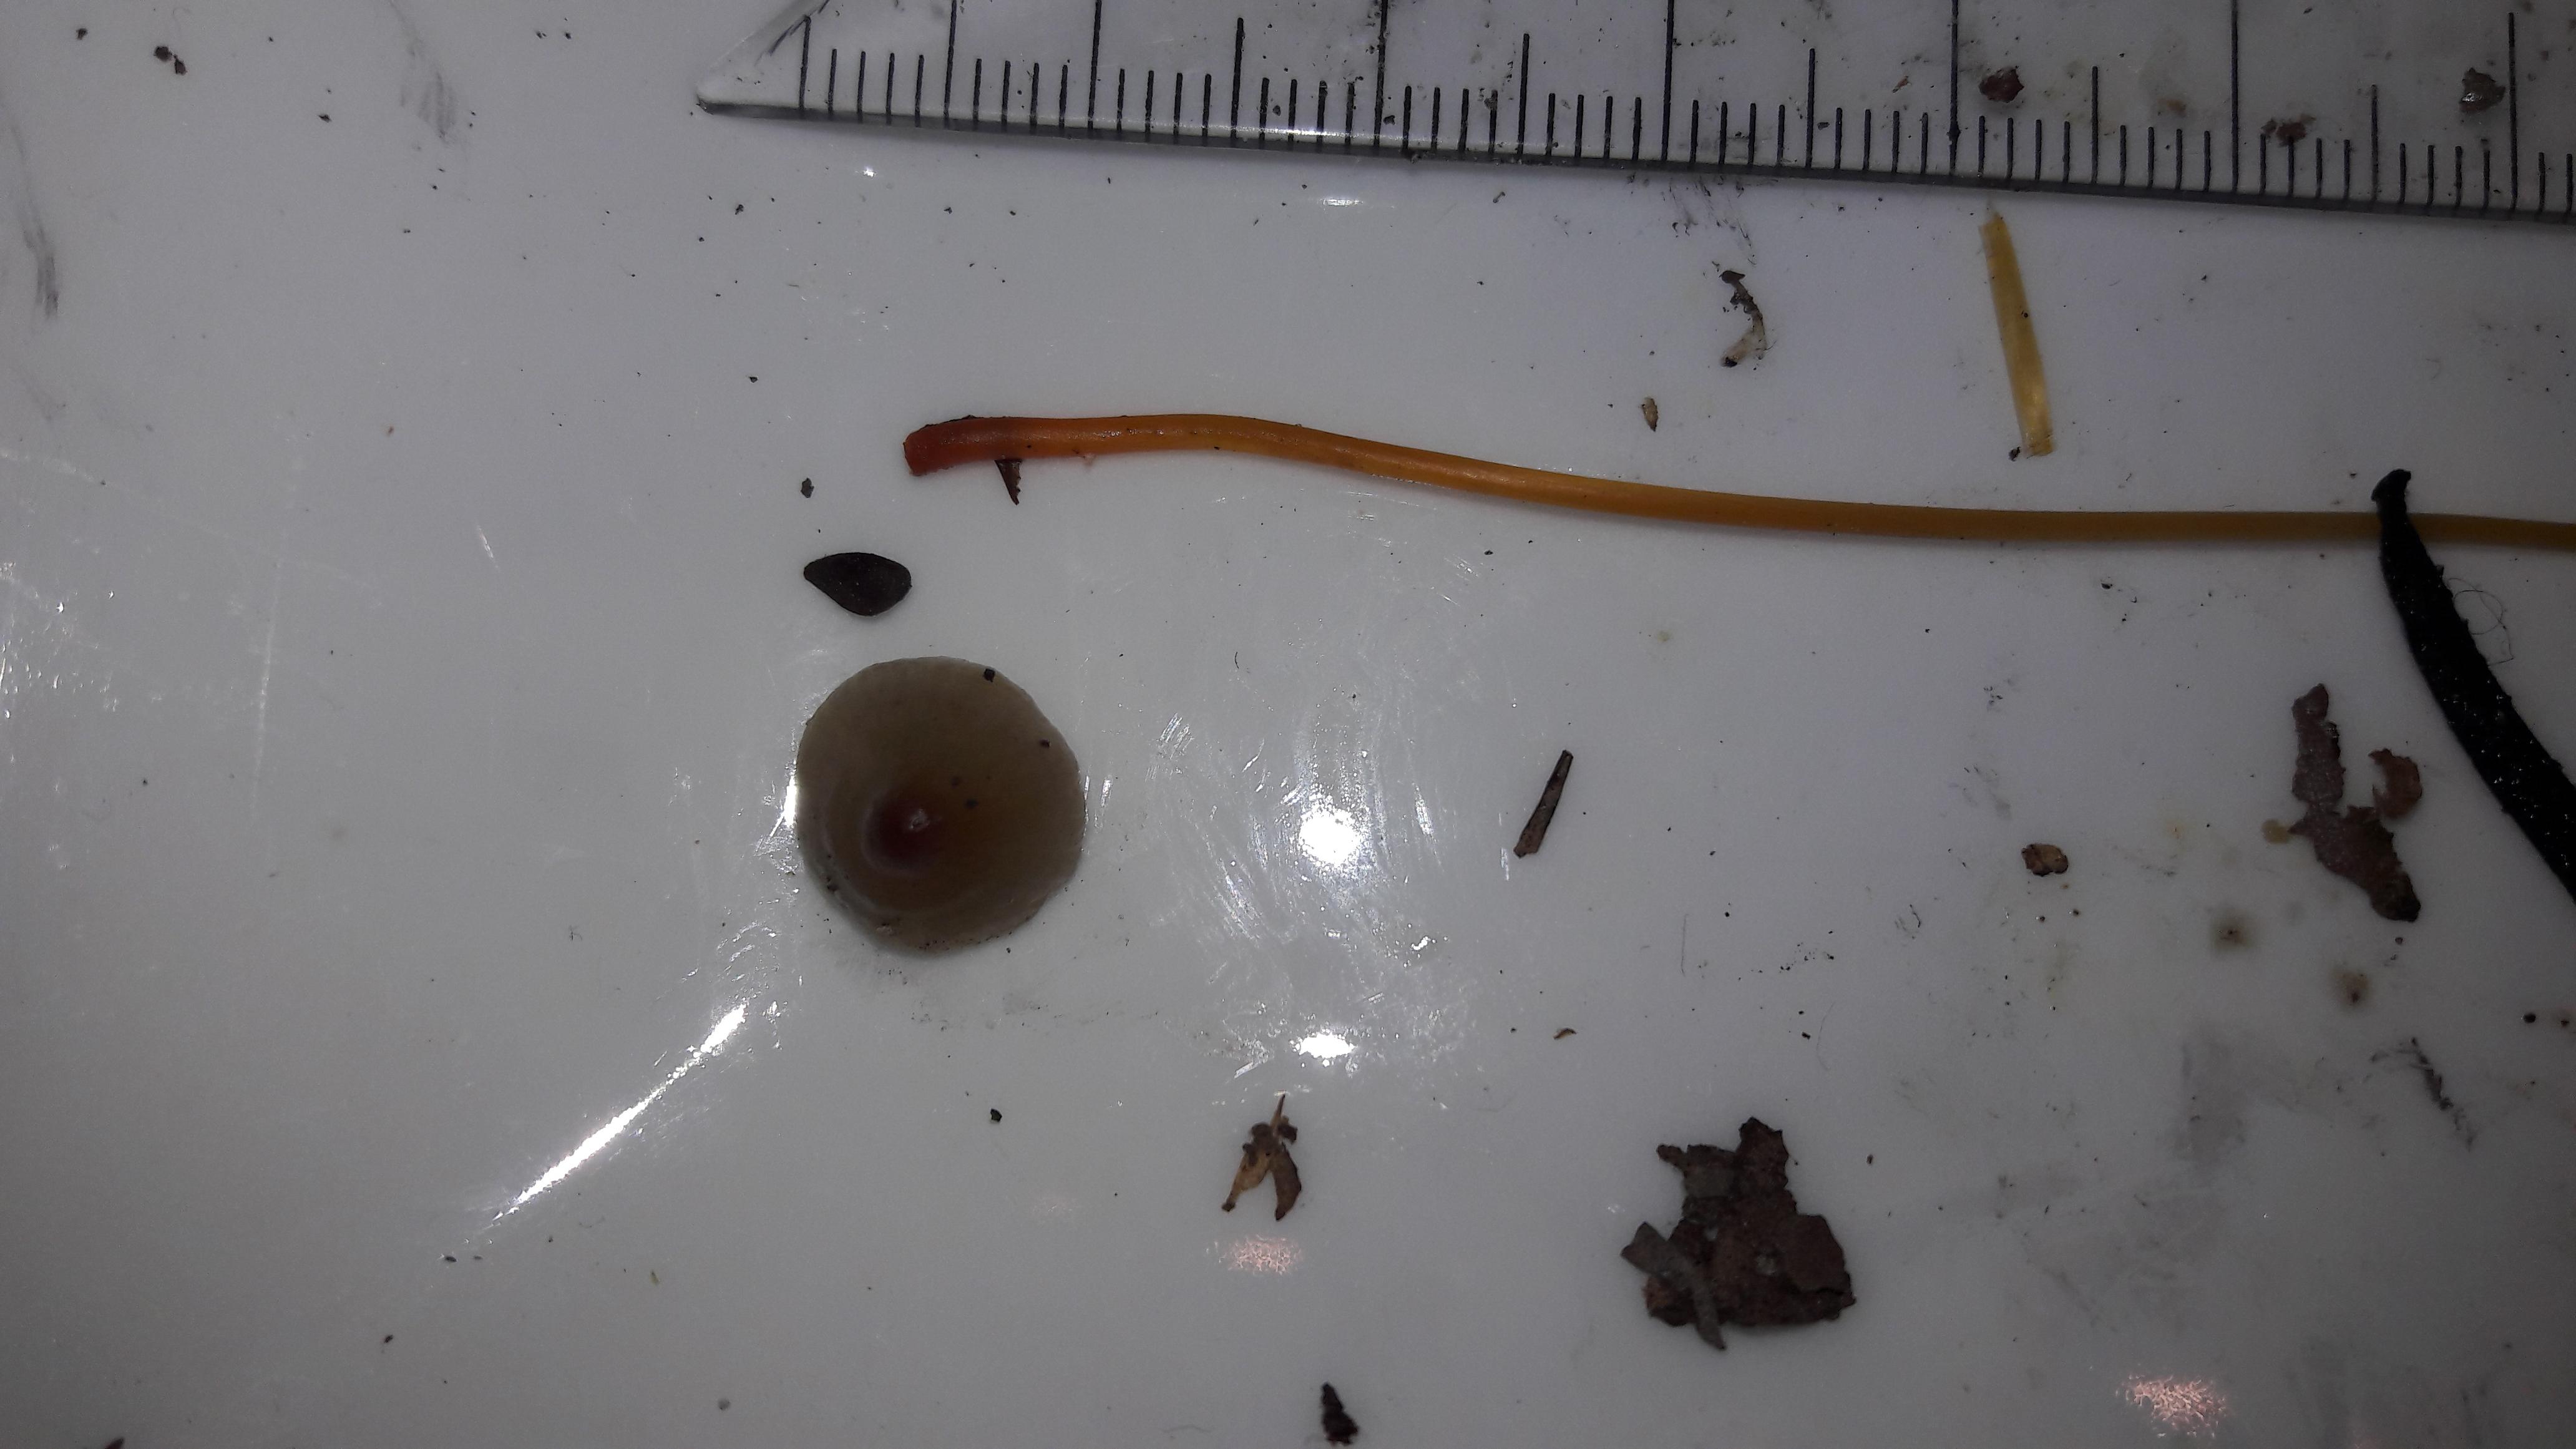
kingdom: Fungi
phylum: Basidiomycota
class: Agaricomycetes
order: Agaricales
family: Mycenaceae
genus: Mycena
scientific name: Mycena crocata
